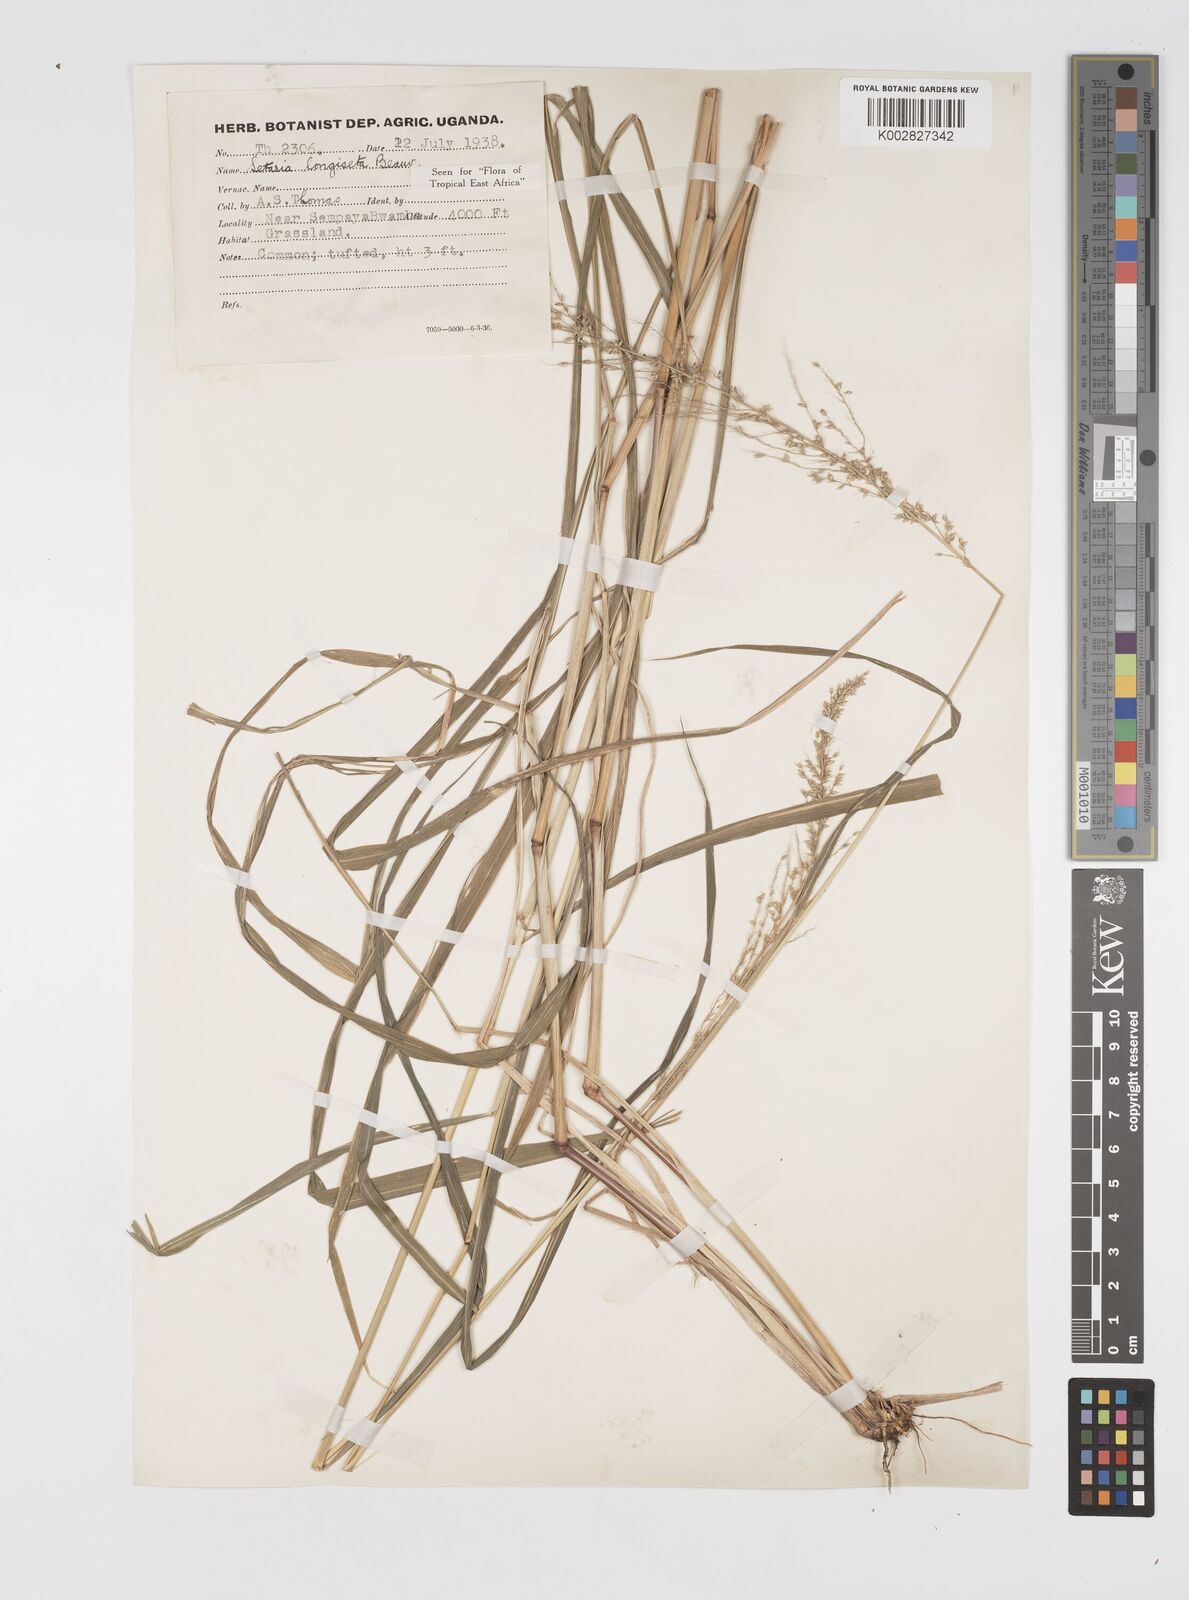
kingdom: Plantae
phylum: Tracheophyta
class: Liliopsida
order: Poales
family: Poaceae
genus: Setaria
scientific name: Setaria longiseta
